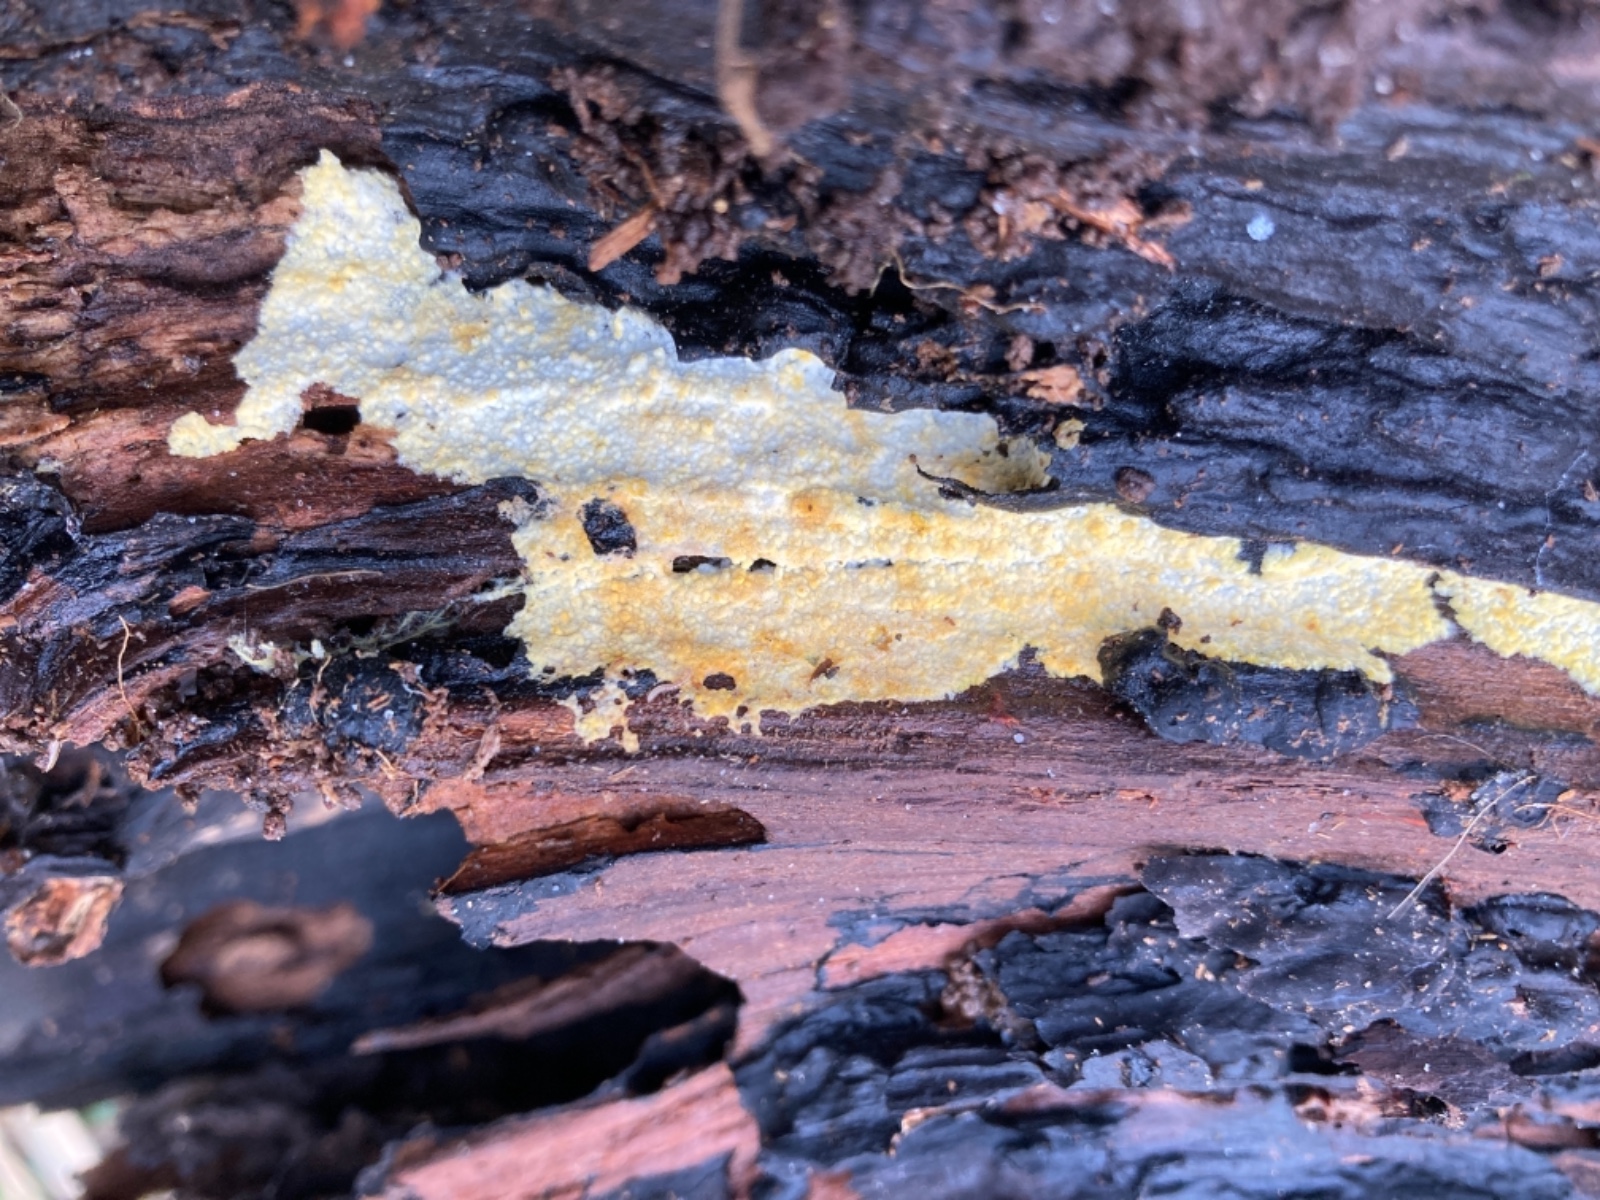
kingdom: Fungi
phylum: Basidiomycota
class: Agaricomycetes
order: Agaricales
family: Stephanosporaceae
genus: Lindtneria
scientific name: Lindtneria leucobryophila
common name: bleg citrushinde
